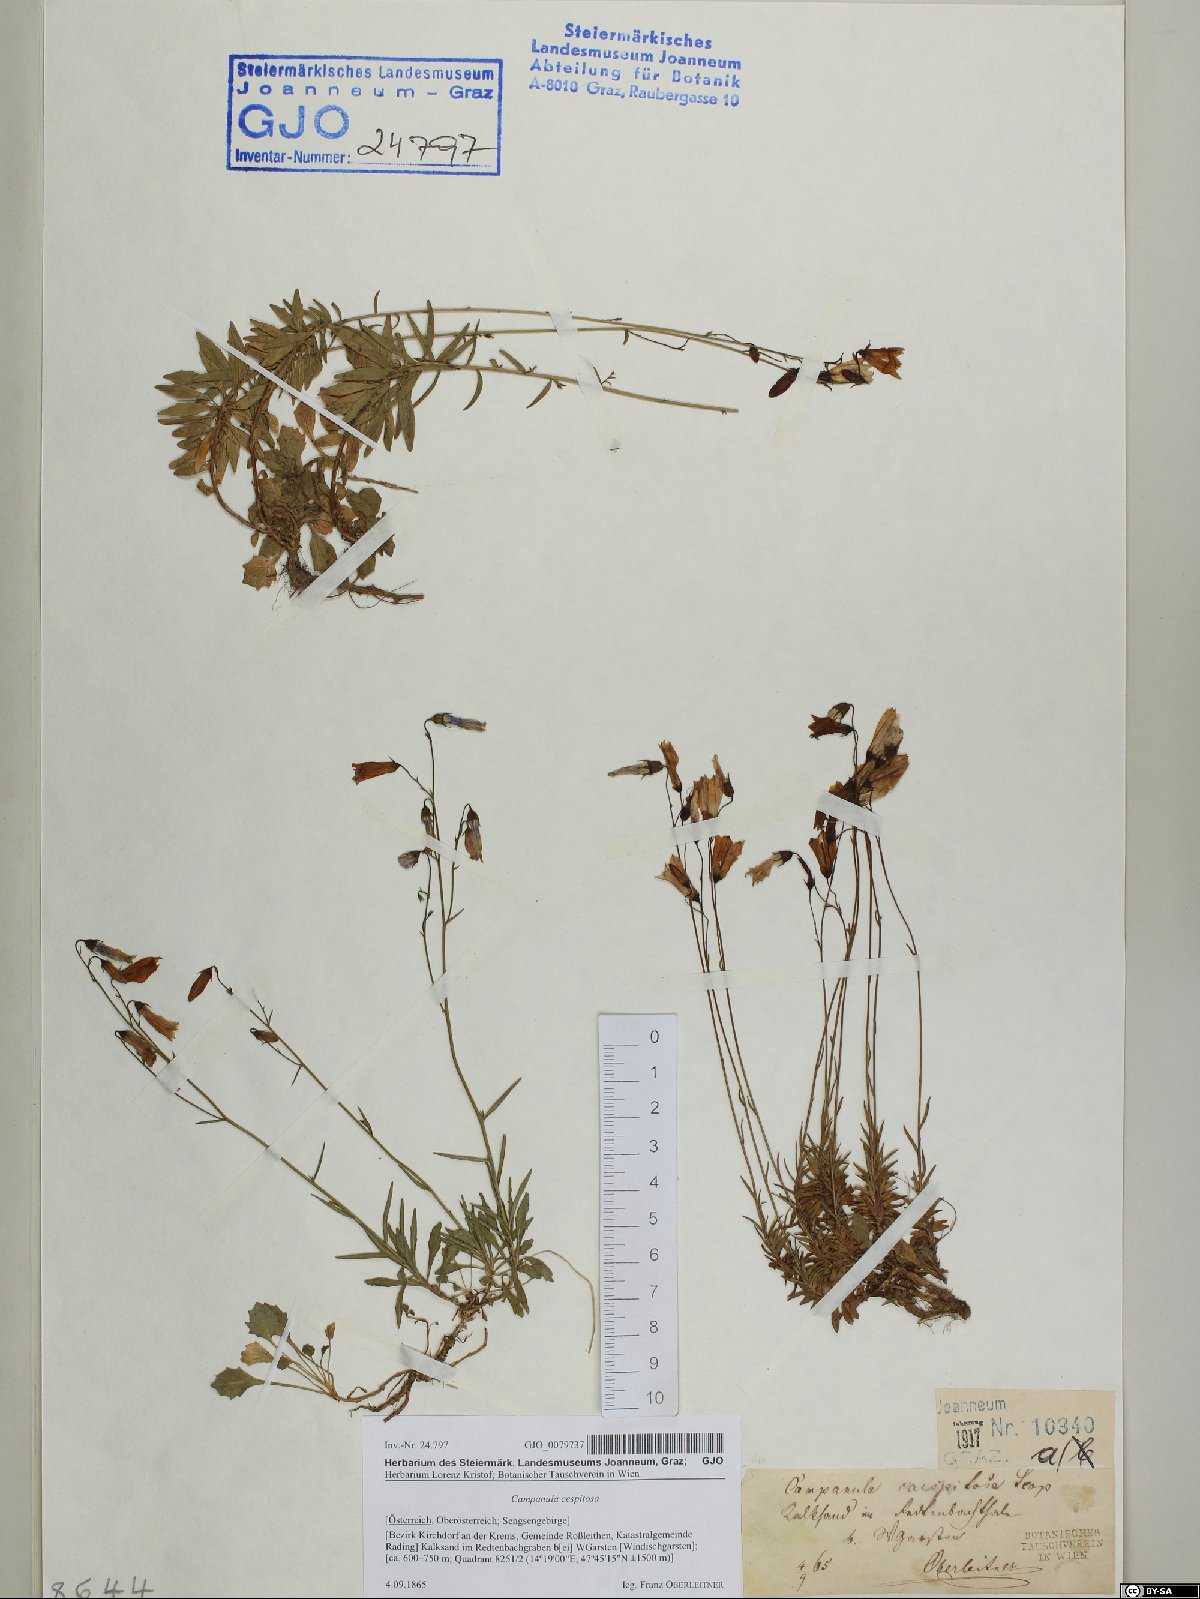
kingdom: Plantae
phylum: Tracheophyta
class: Magnoliopsida
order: Asterales
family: Campanulaceae
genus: Campanula
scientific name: Campanula cespitosa
